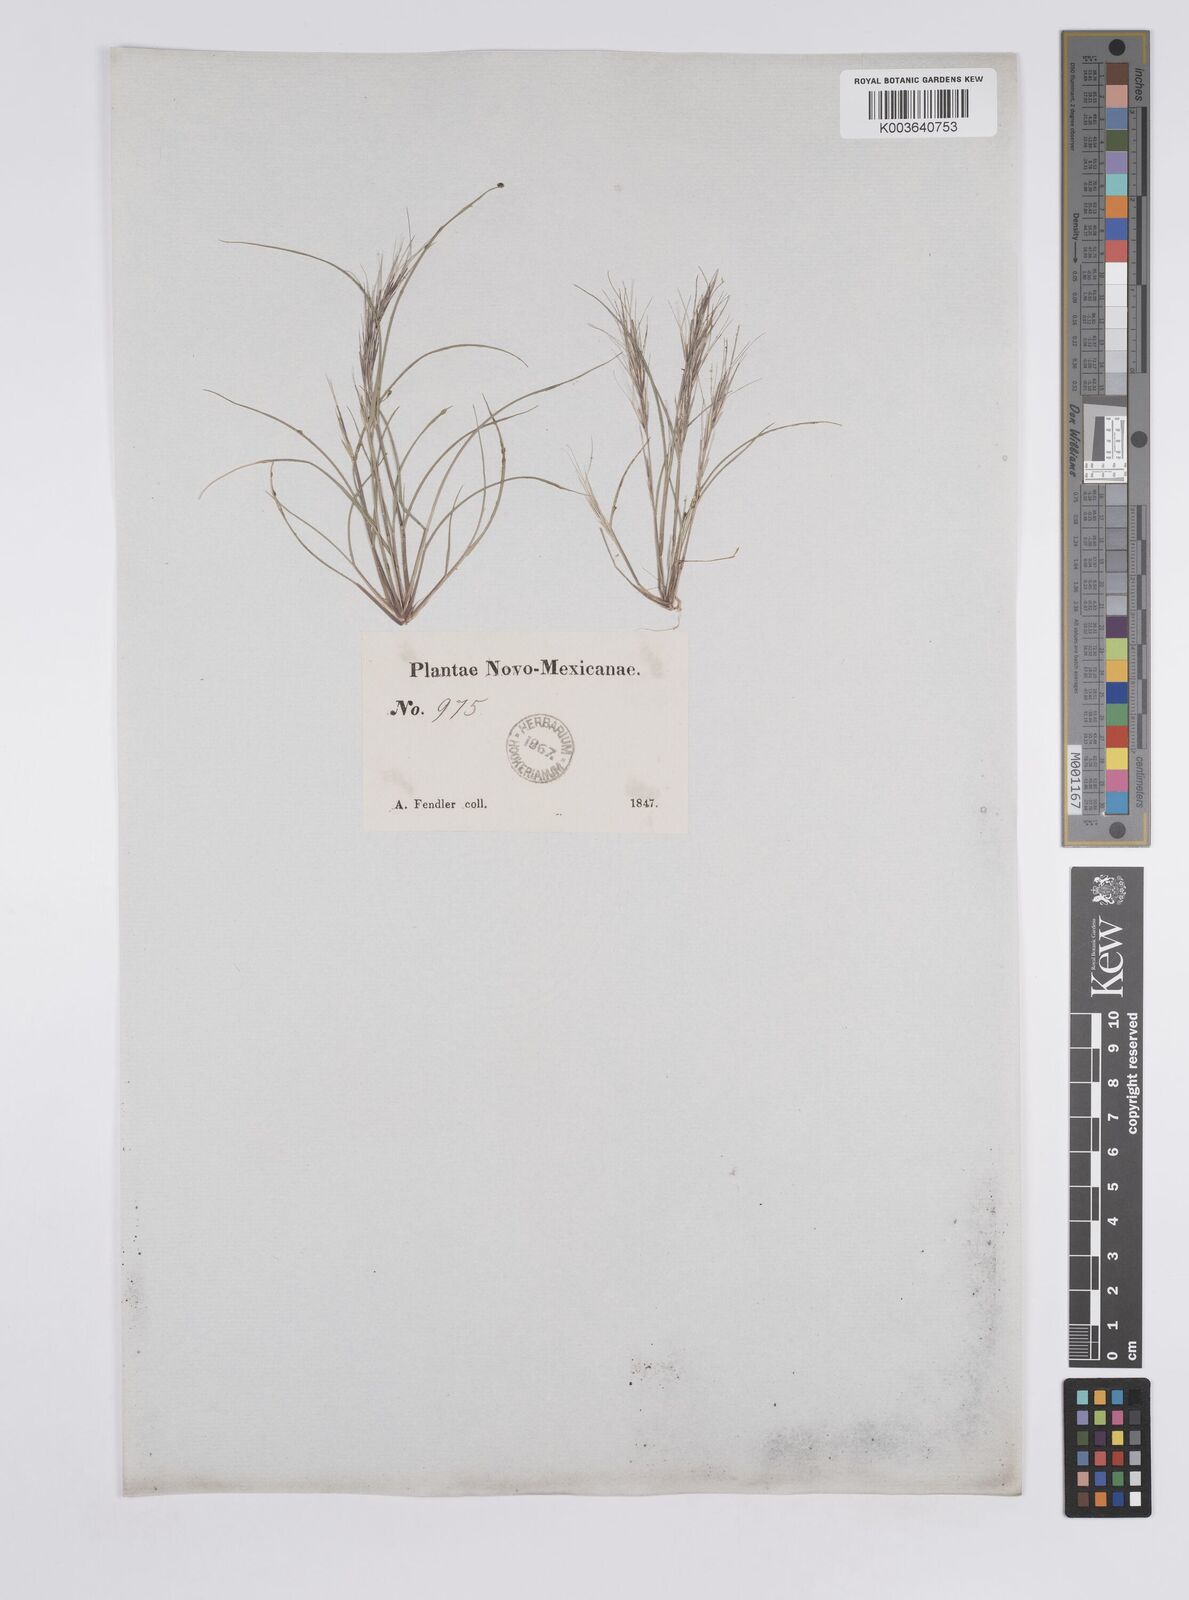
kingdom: Plantae
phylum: Tracheophyta
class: Liliopsida
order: Poales
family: Poaceae
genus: Aristida
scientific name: Aristida adscensionis
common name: Sixweeks threeawn
